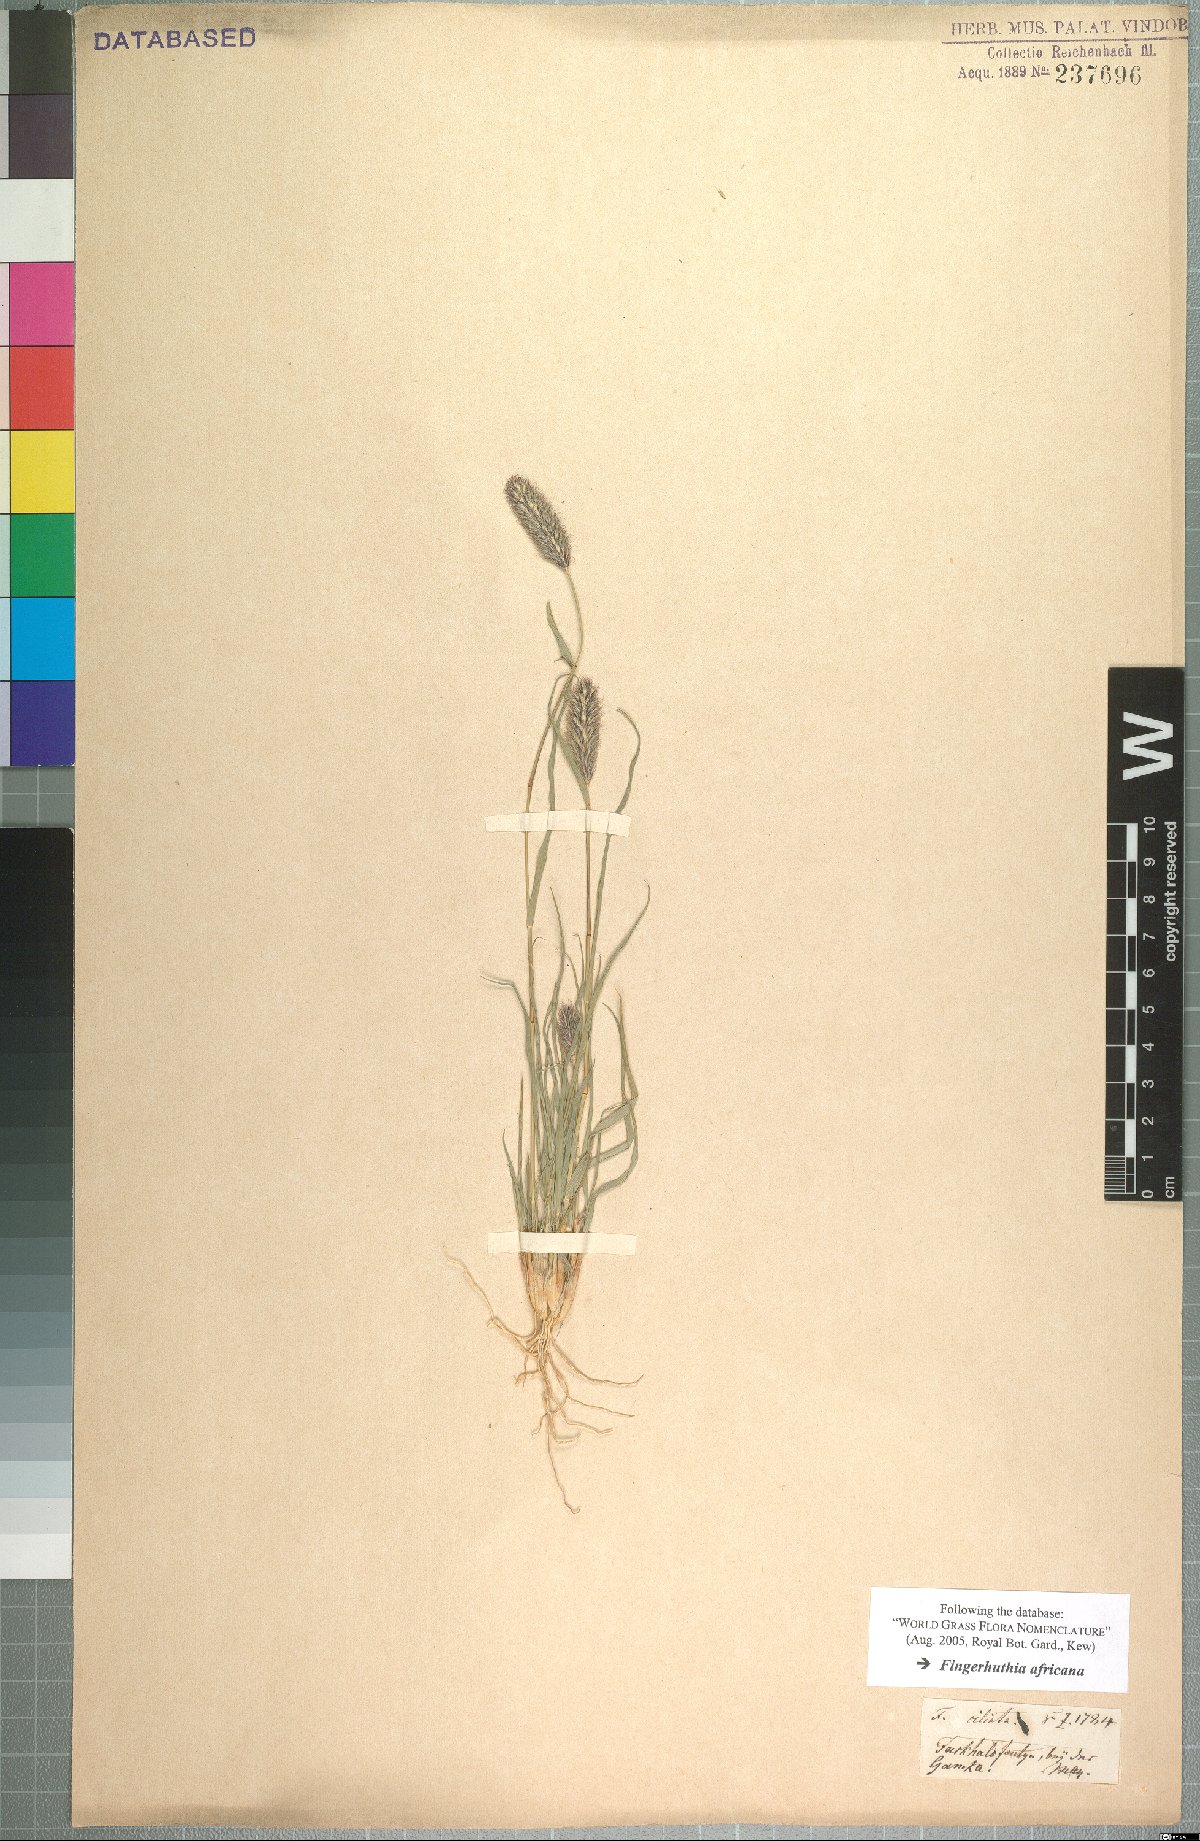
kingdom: Plantae
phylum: Tracheophyta
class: Liliopsida
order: Poales
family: Poaceae
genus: Fingerhuthia
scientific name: Fingerhuthia africana
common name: Zulu fescue
